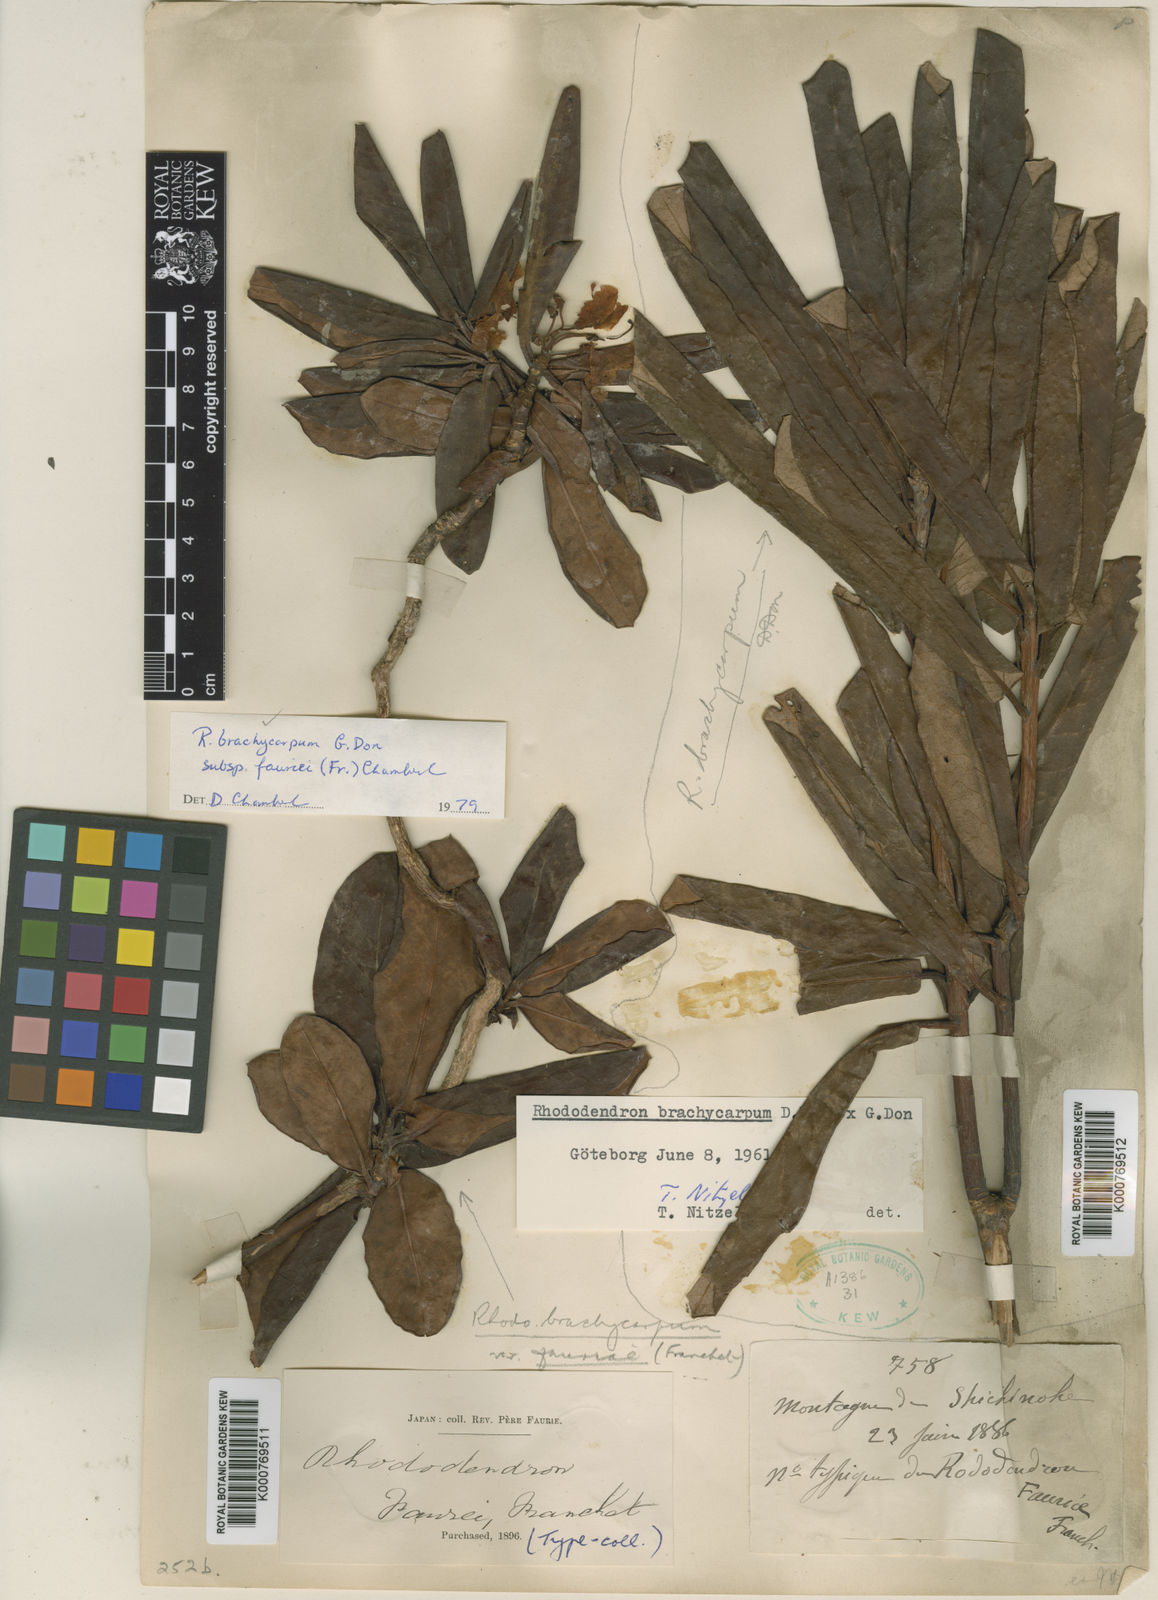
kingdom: Plantae
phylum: Tracheophyta
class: Magnoliopsida
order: Ericales
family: Ericaceae
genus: Rhododendron
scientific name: Rhododendron brachycarpum
